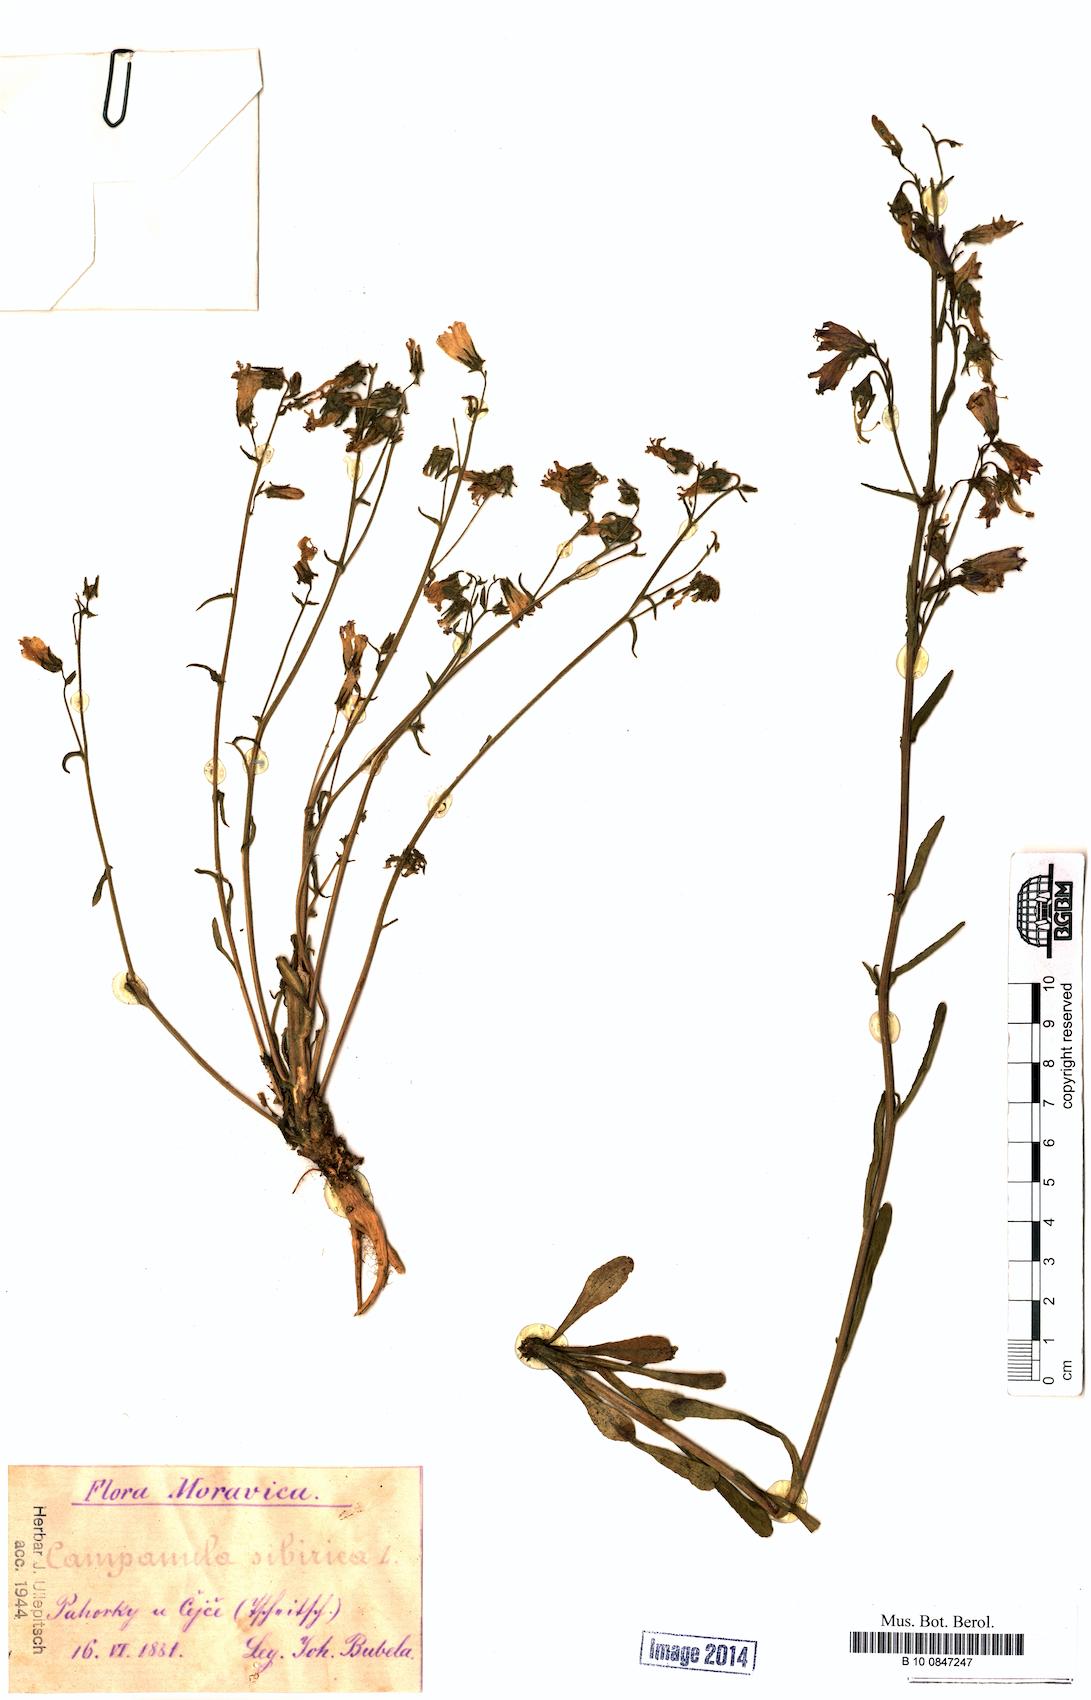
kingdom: Plantae
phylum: Tracheophyta
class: Magnoliopsida
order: Asterales
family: Campanulaceae
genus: Campanula
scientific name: Campanula sibirica
